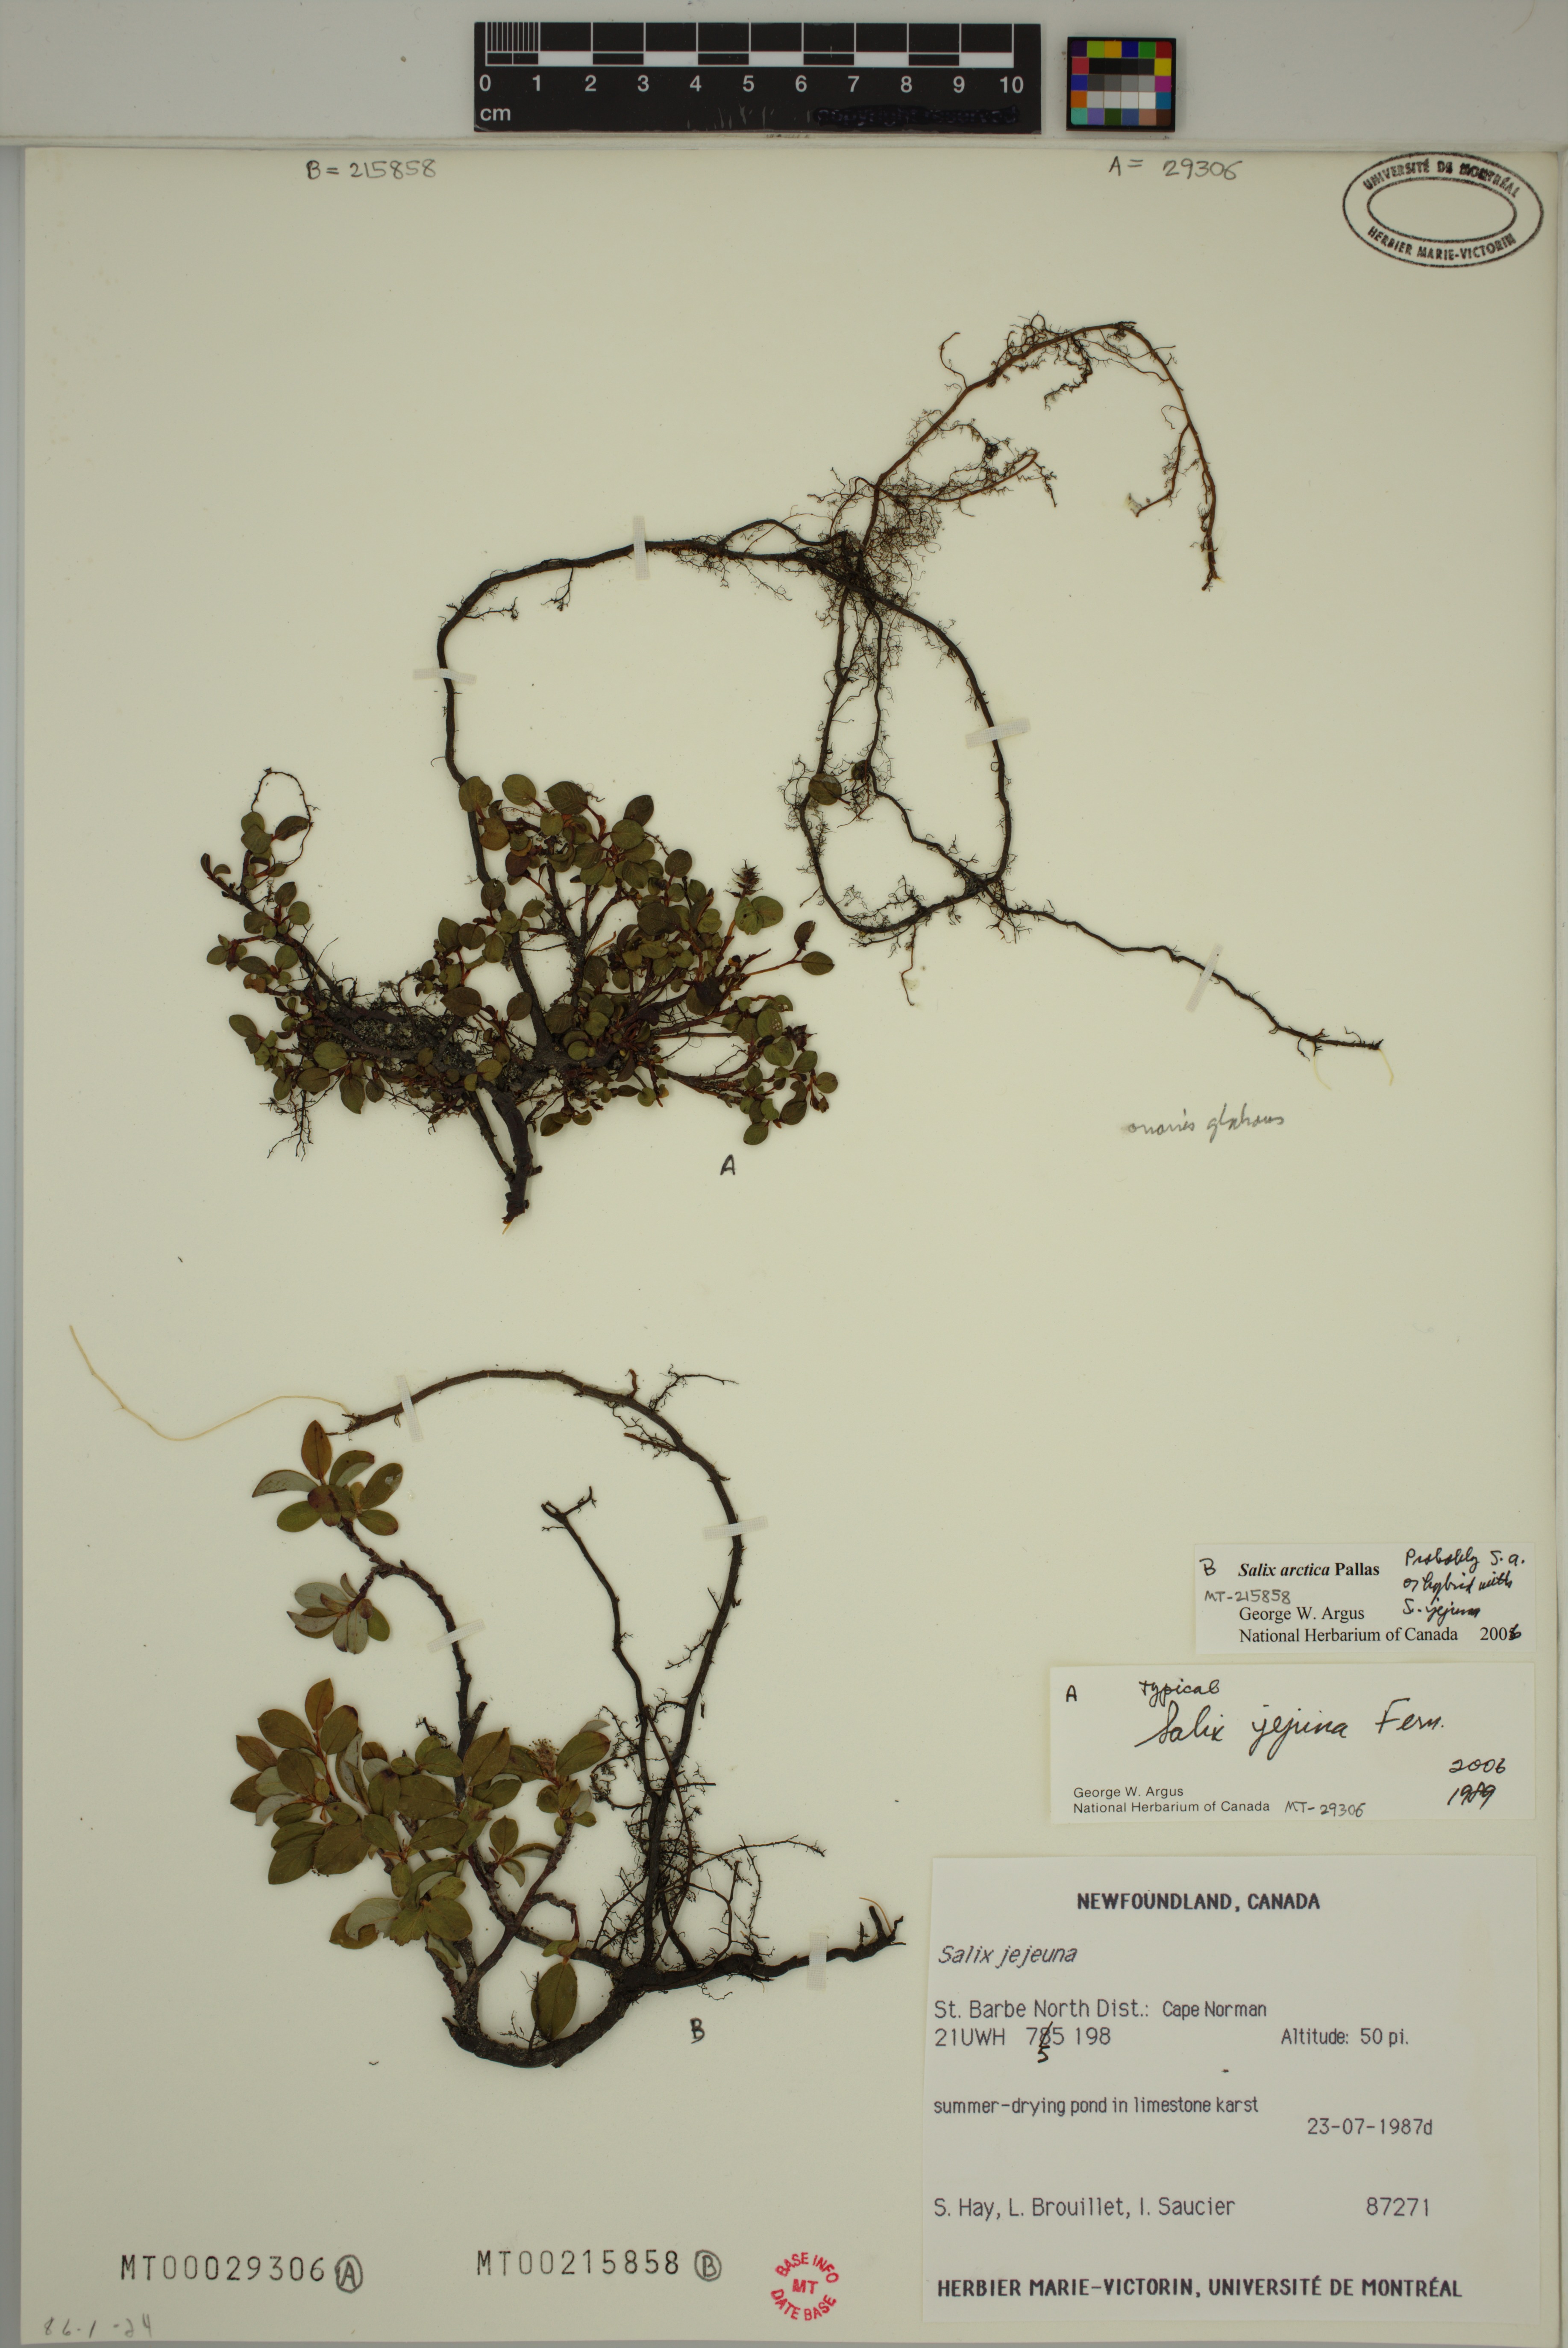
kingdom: Plantae
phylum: Tracheophyta
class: Magnoliopsida
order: Malpighiales
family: Salicaceae
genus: Salix
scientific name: Salix arctica
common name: Arctic willow
